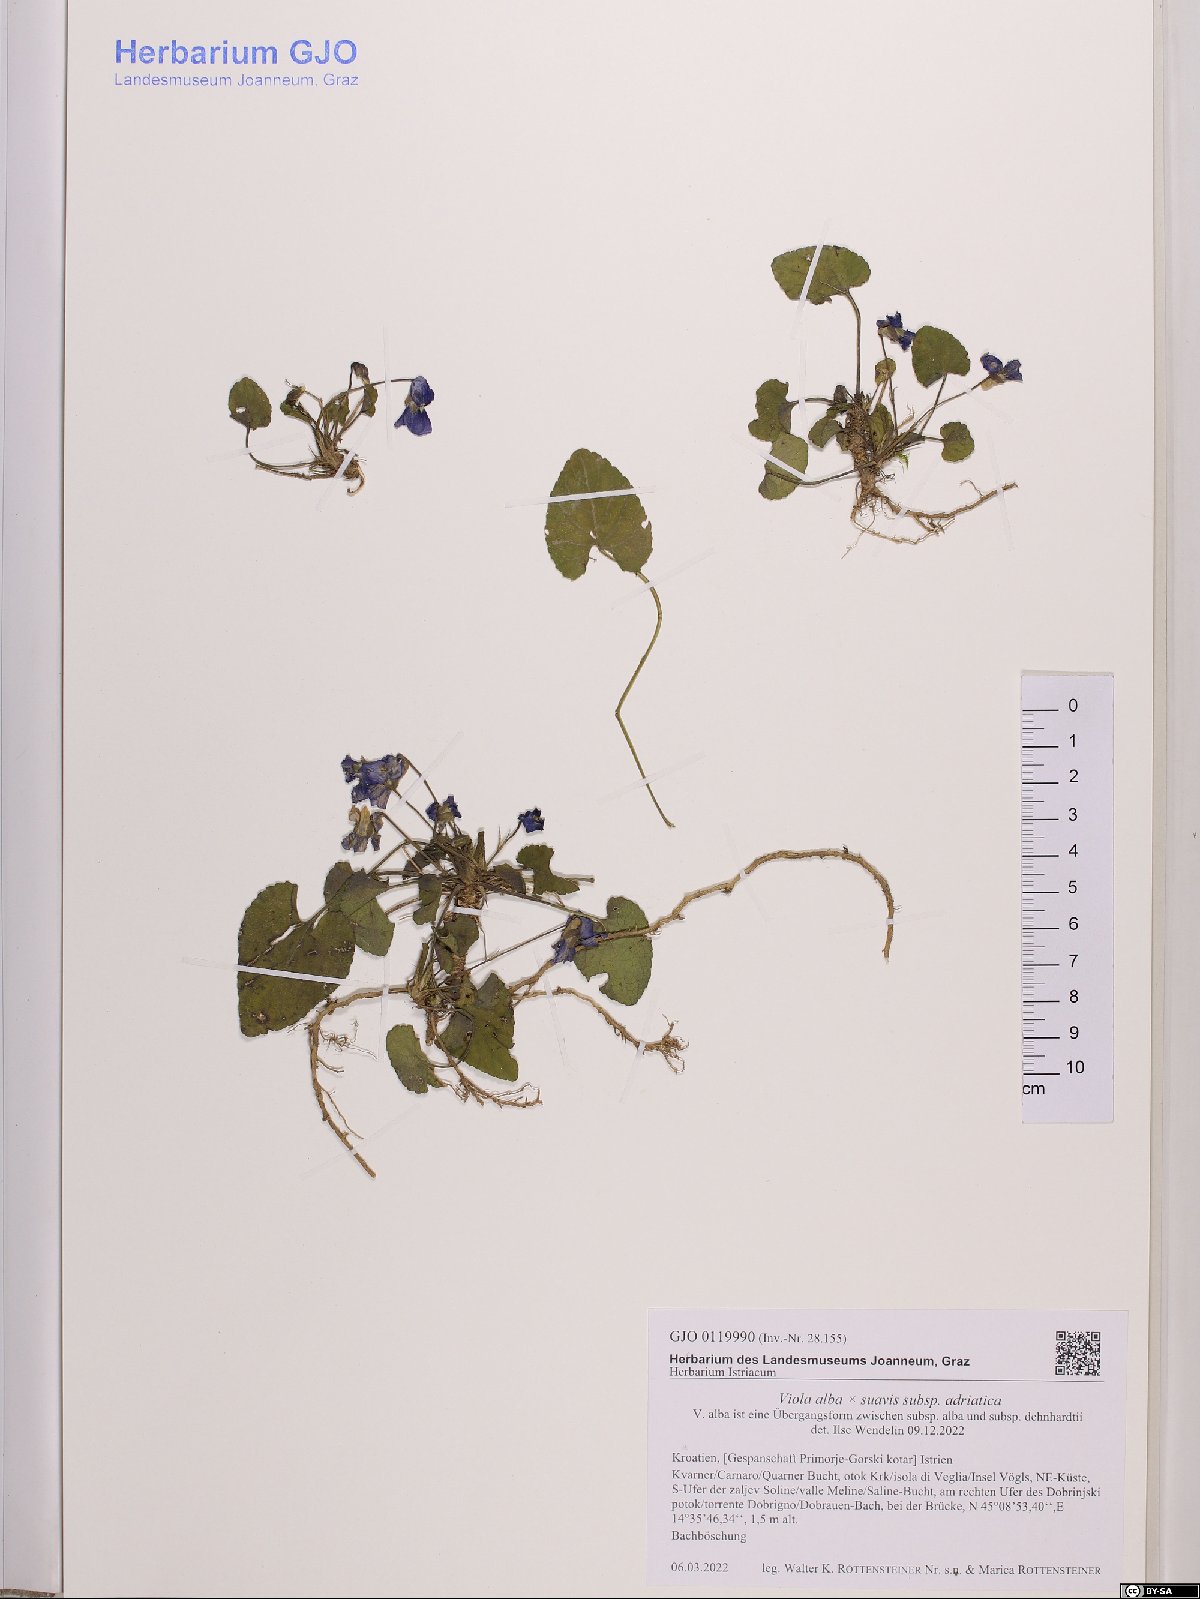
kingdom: Plantae
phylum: Tracheophyta
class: Magnoliopsida
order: Malpighiales
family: Violaceae
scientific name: Violaceae
